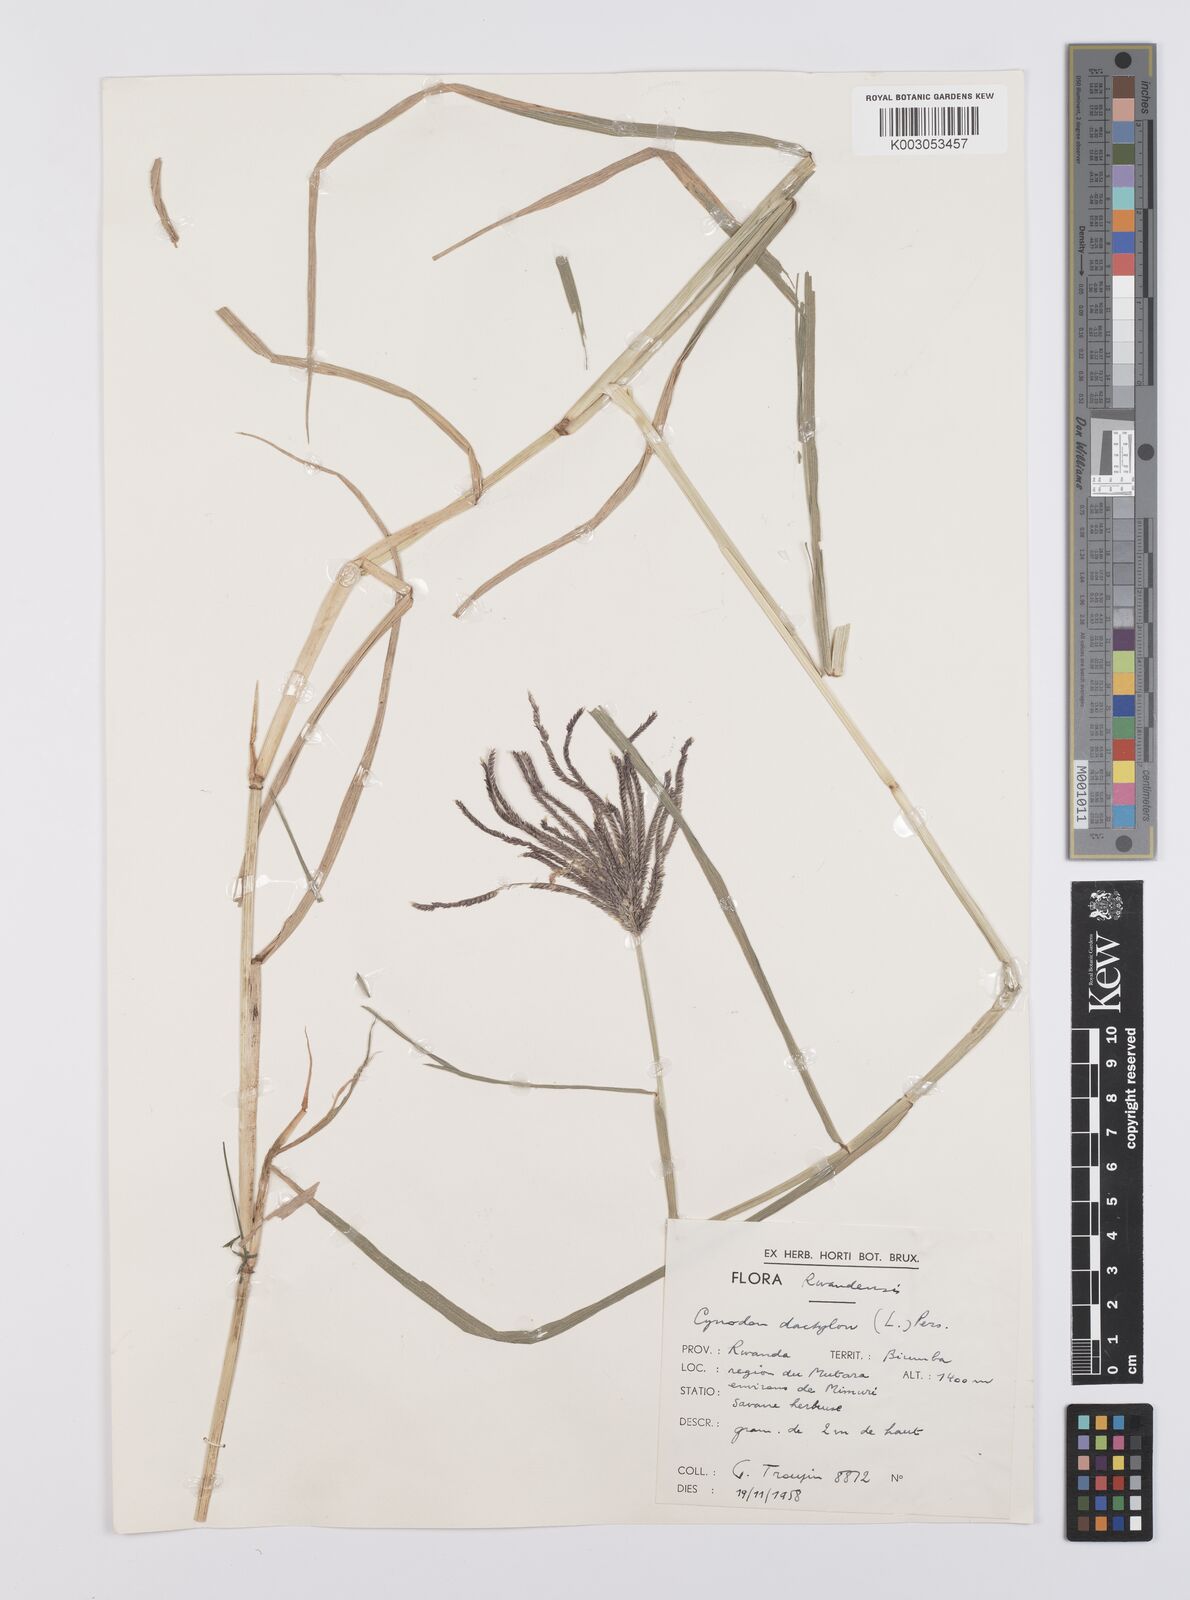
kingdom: Plantae
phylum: Tracheophyta
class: Liliopsida
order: Poales
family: Poaceae
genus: Cynodon
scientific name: Cynodon aethiopicus
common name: Ethiopian dogstooth grass
